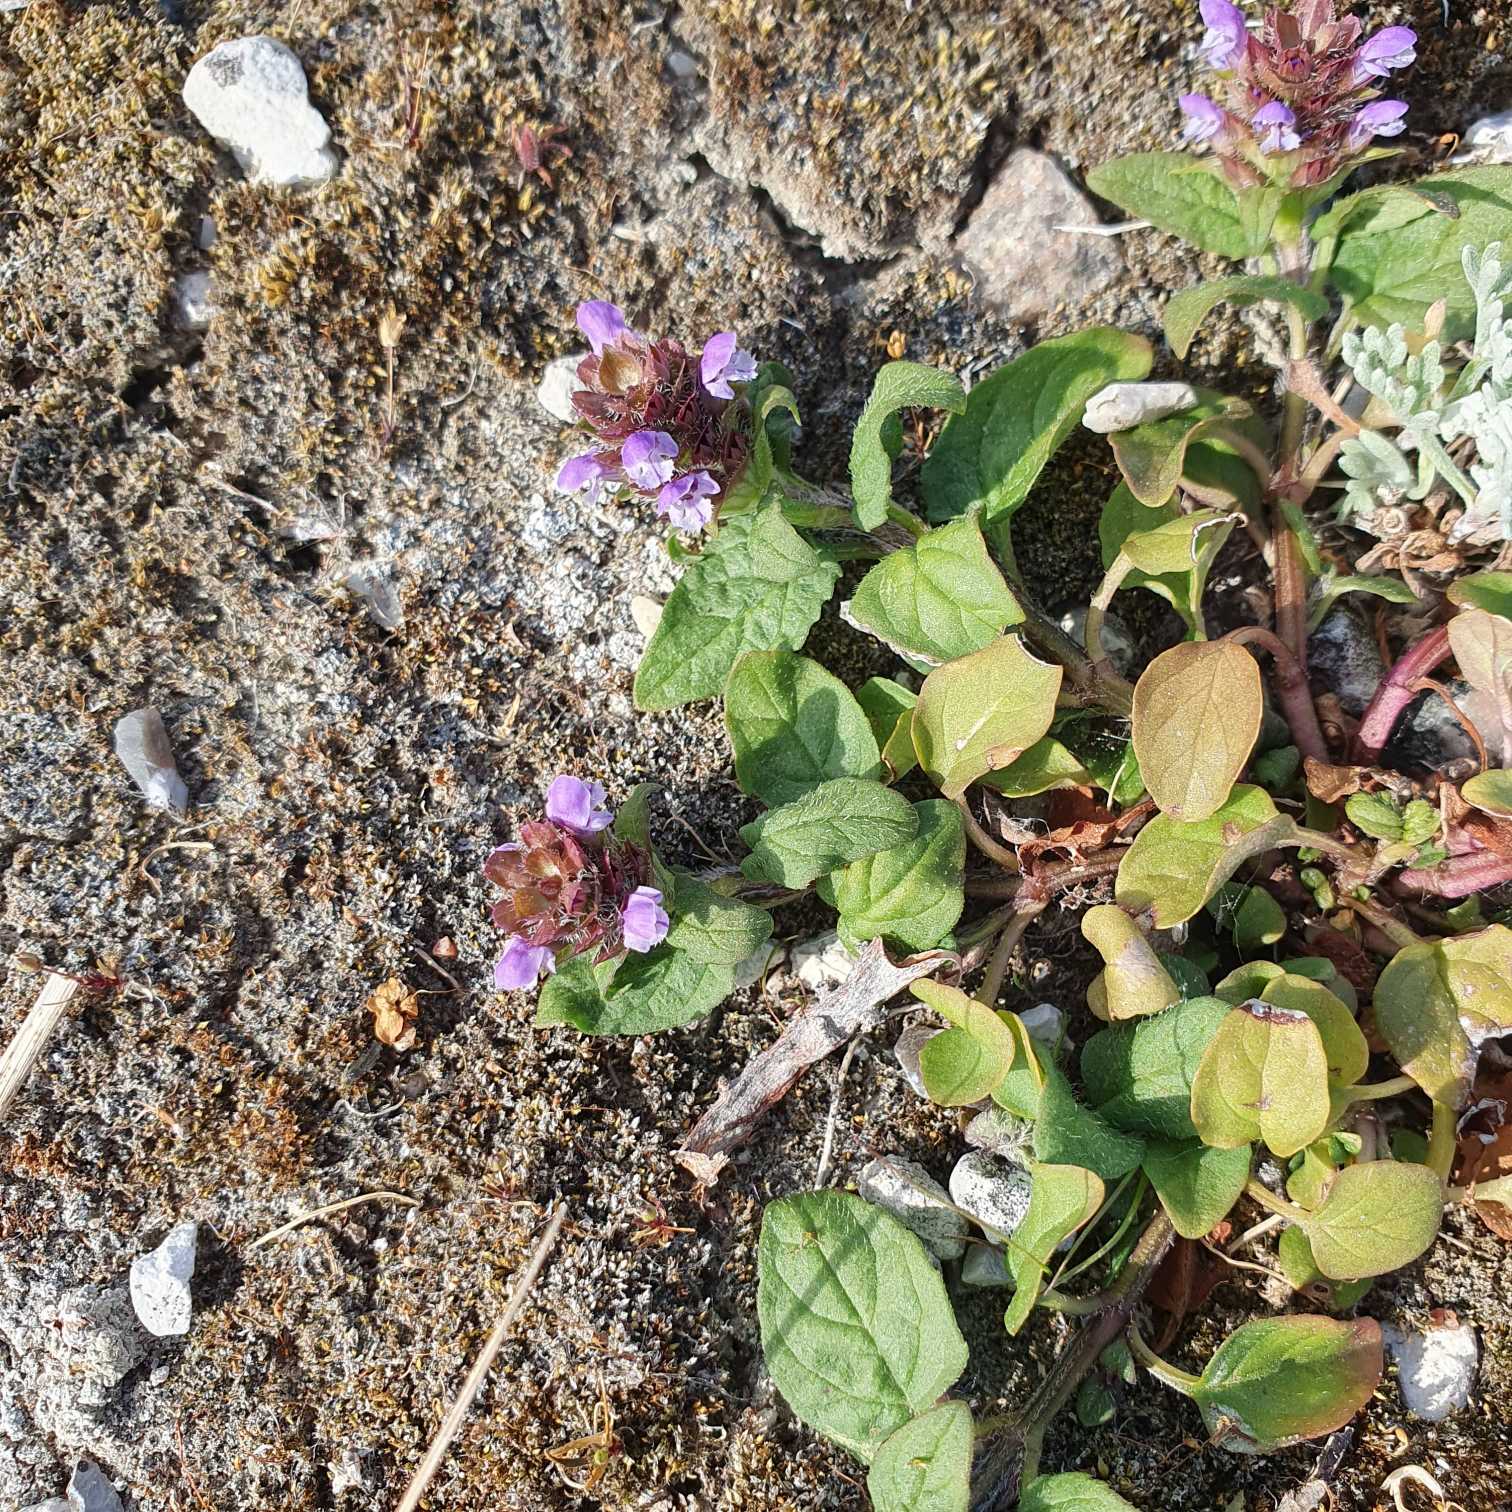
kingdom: Plantae
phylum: Tracheophyta
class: Magnoliopsida
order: Lamiales
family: Lamiaceae
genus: Prunella
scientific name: Prunella vulgaris
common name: Almindelig brunelle
